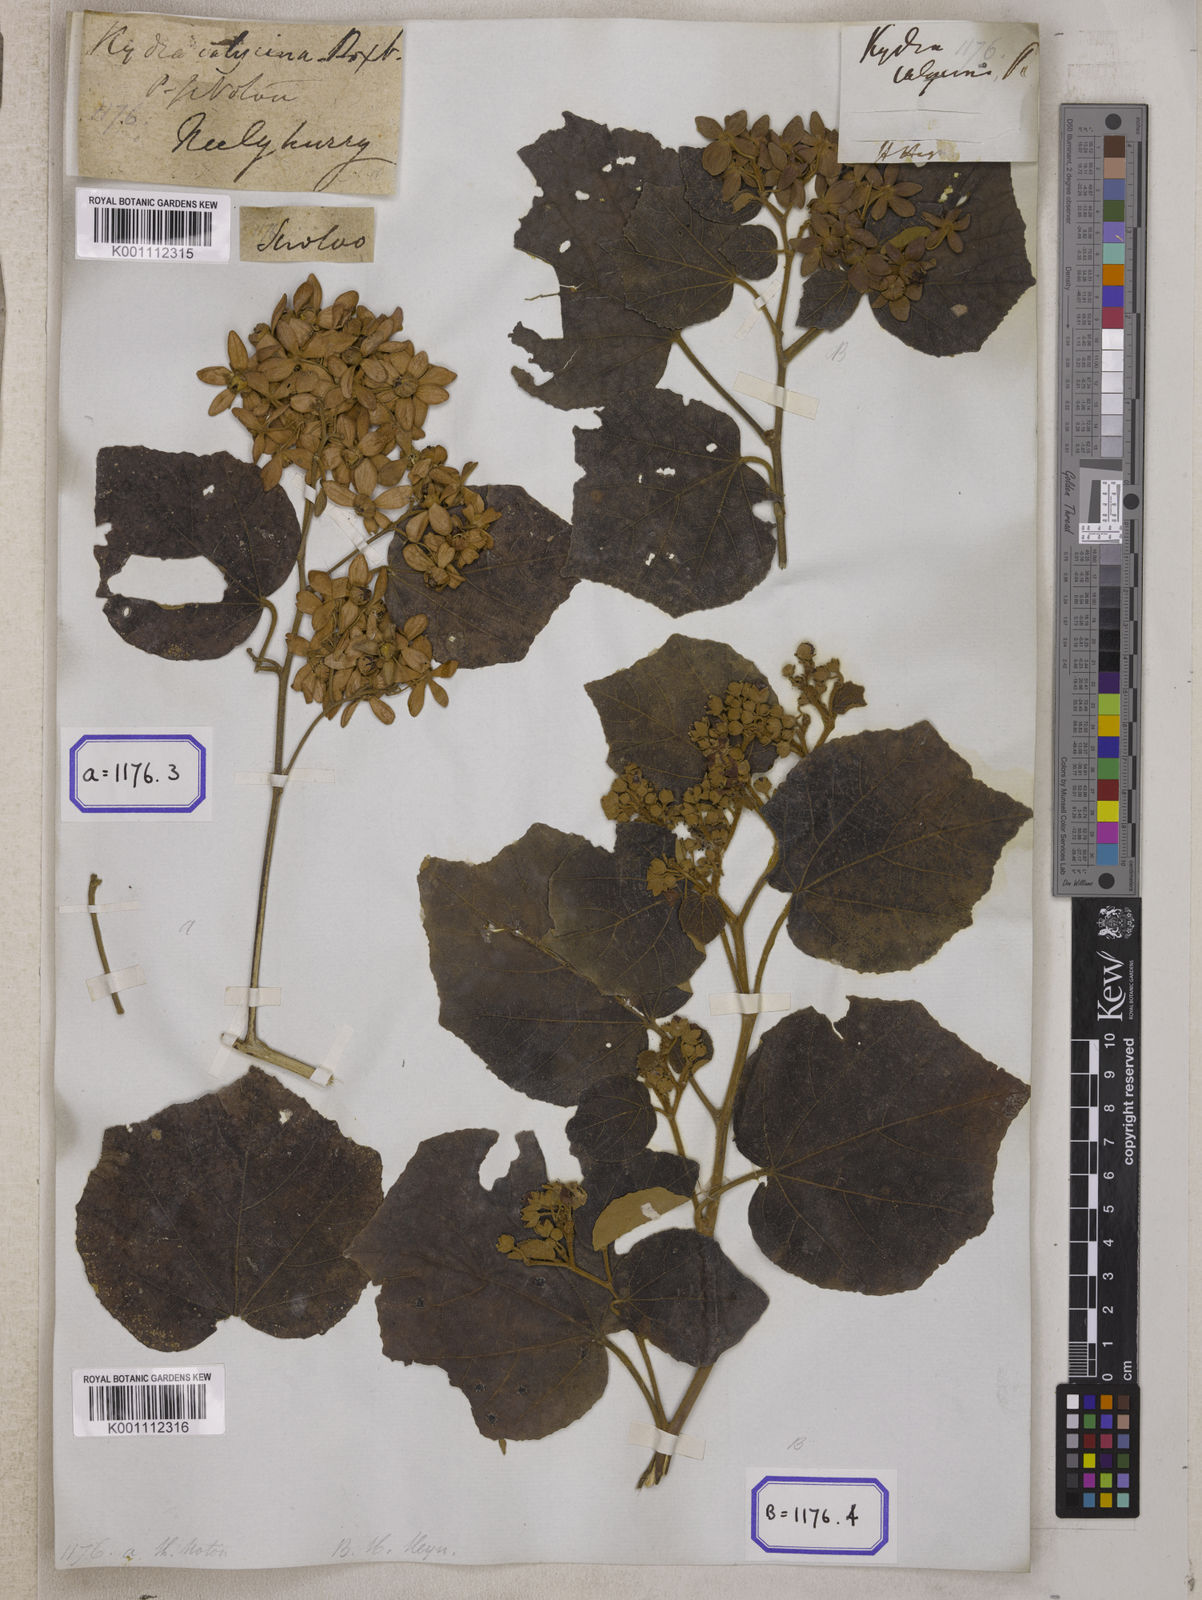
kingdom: Plantae
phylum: Tracheophyta
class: Magnoliopsida
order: Malvales
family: Malvaceae
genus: Kydia
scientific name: Kydia calycina
